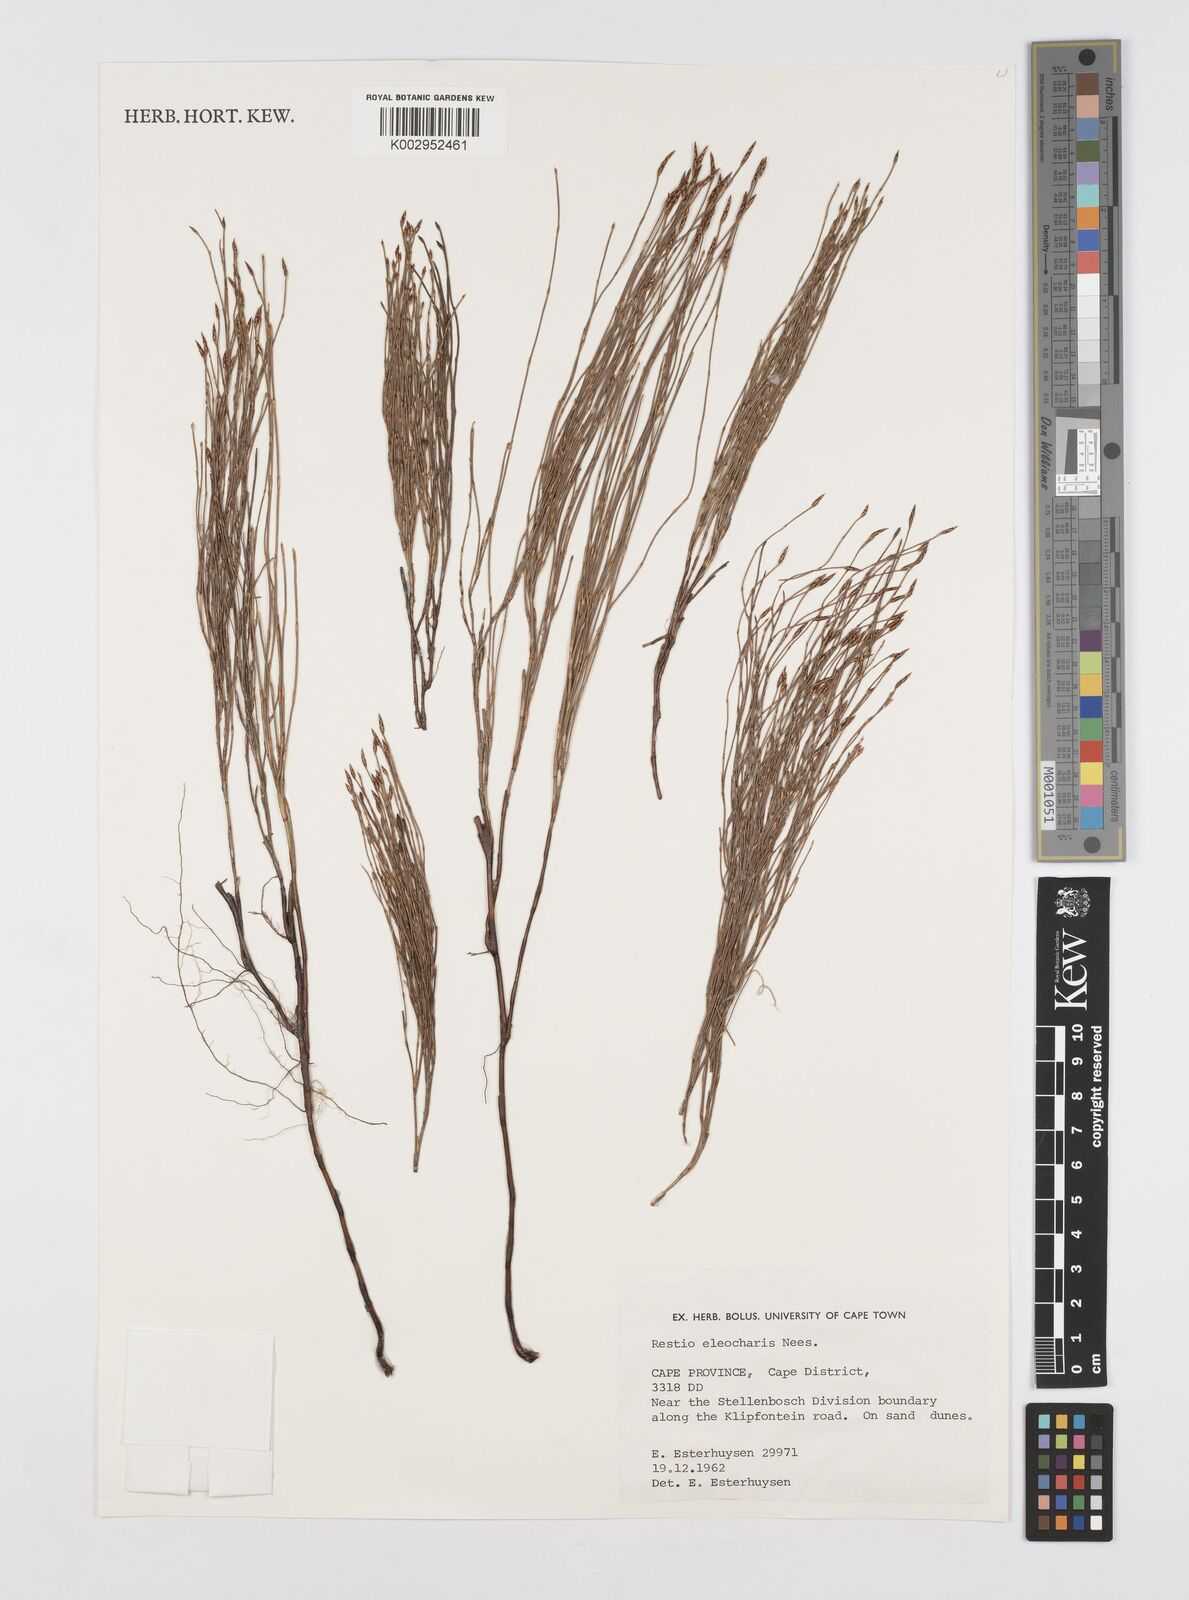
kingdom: Plantae
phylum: Tracheophyta
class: Liliopsida
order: Poales
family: Restionaceae
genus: Restio
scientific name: Restio eleocharis
